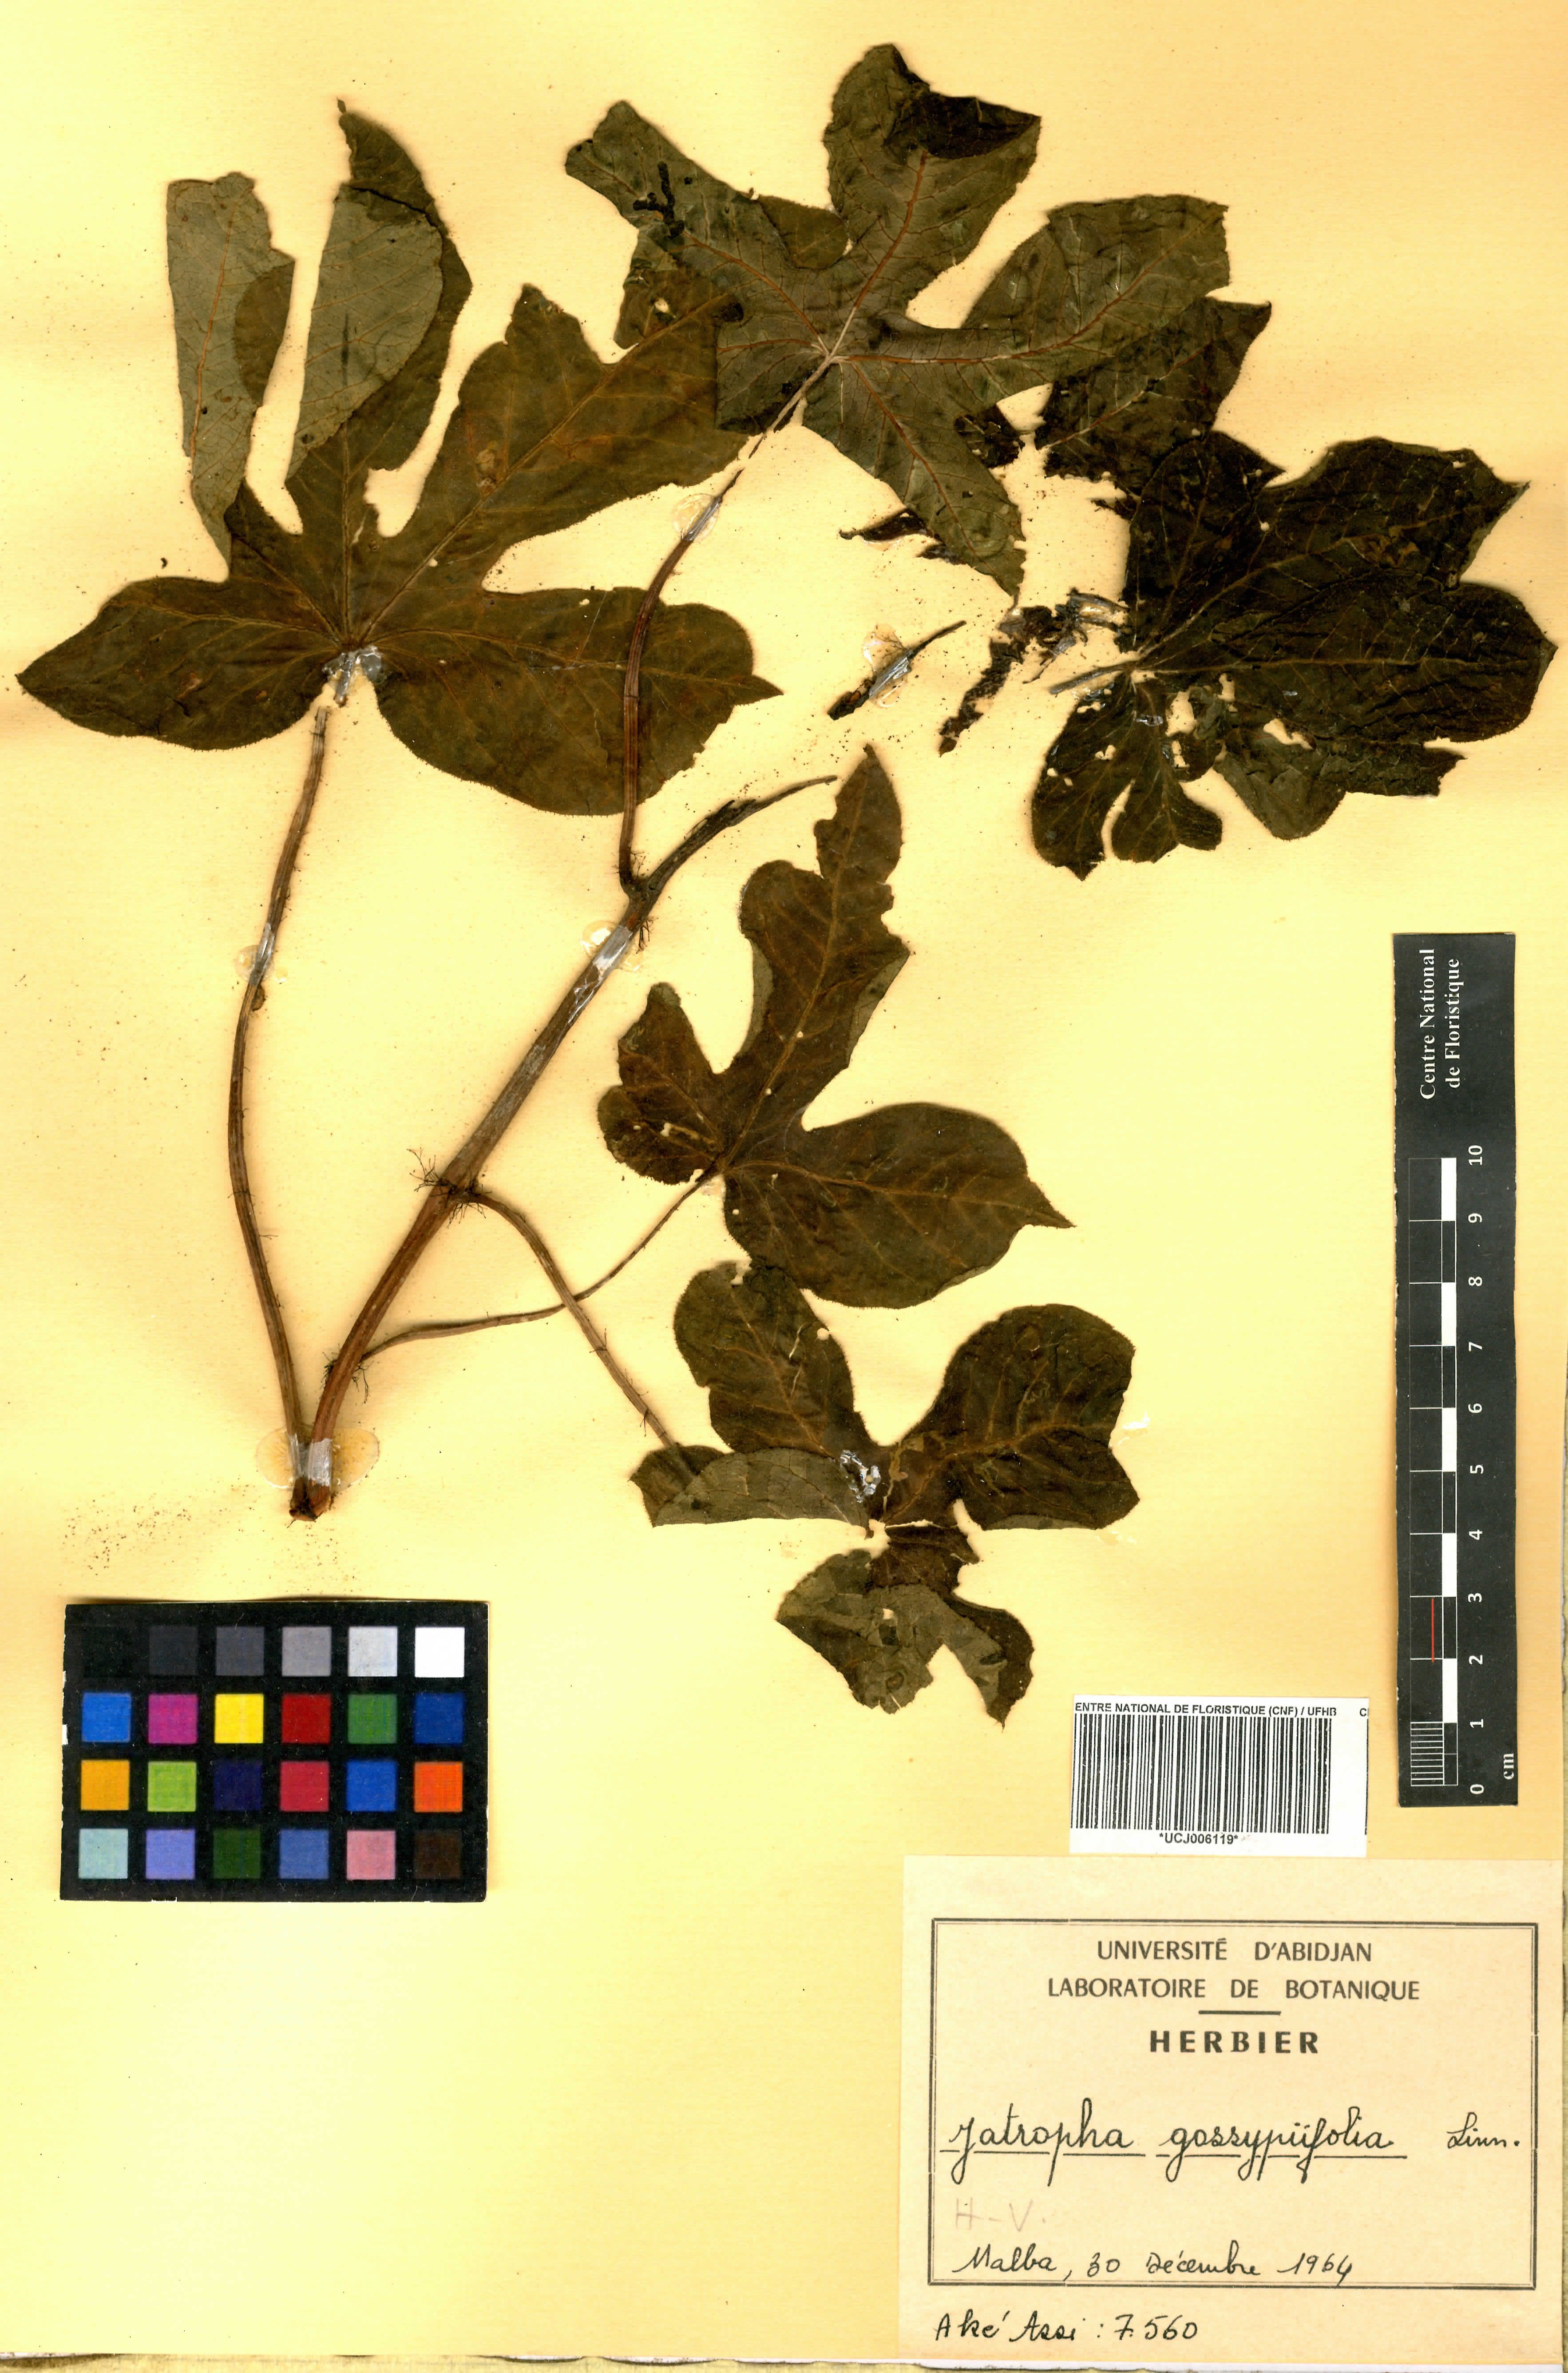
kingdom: Plantae
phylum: Tracheophyta
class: Magnoliopsida
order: Malpighiales
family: Euphorbiaceae
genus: Jatropha
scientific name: Jatropha gossypiifolia
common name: Bellyache bush
